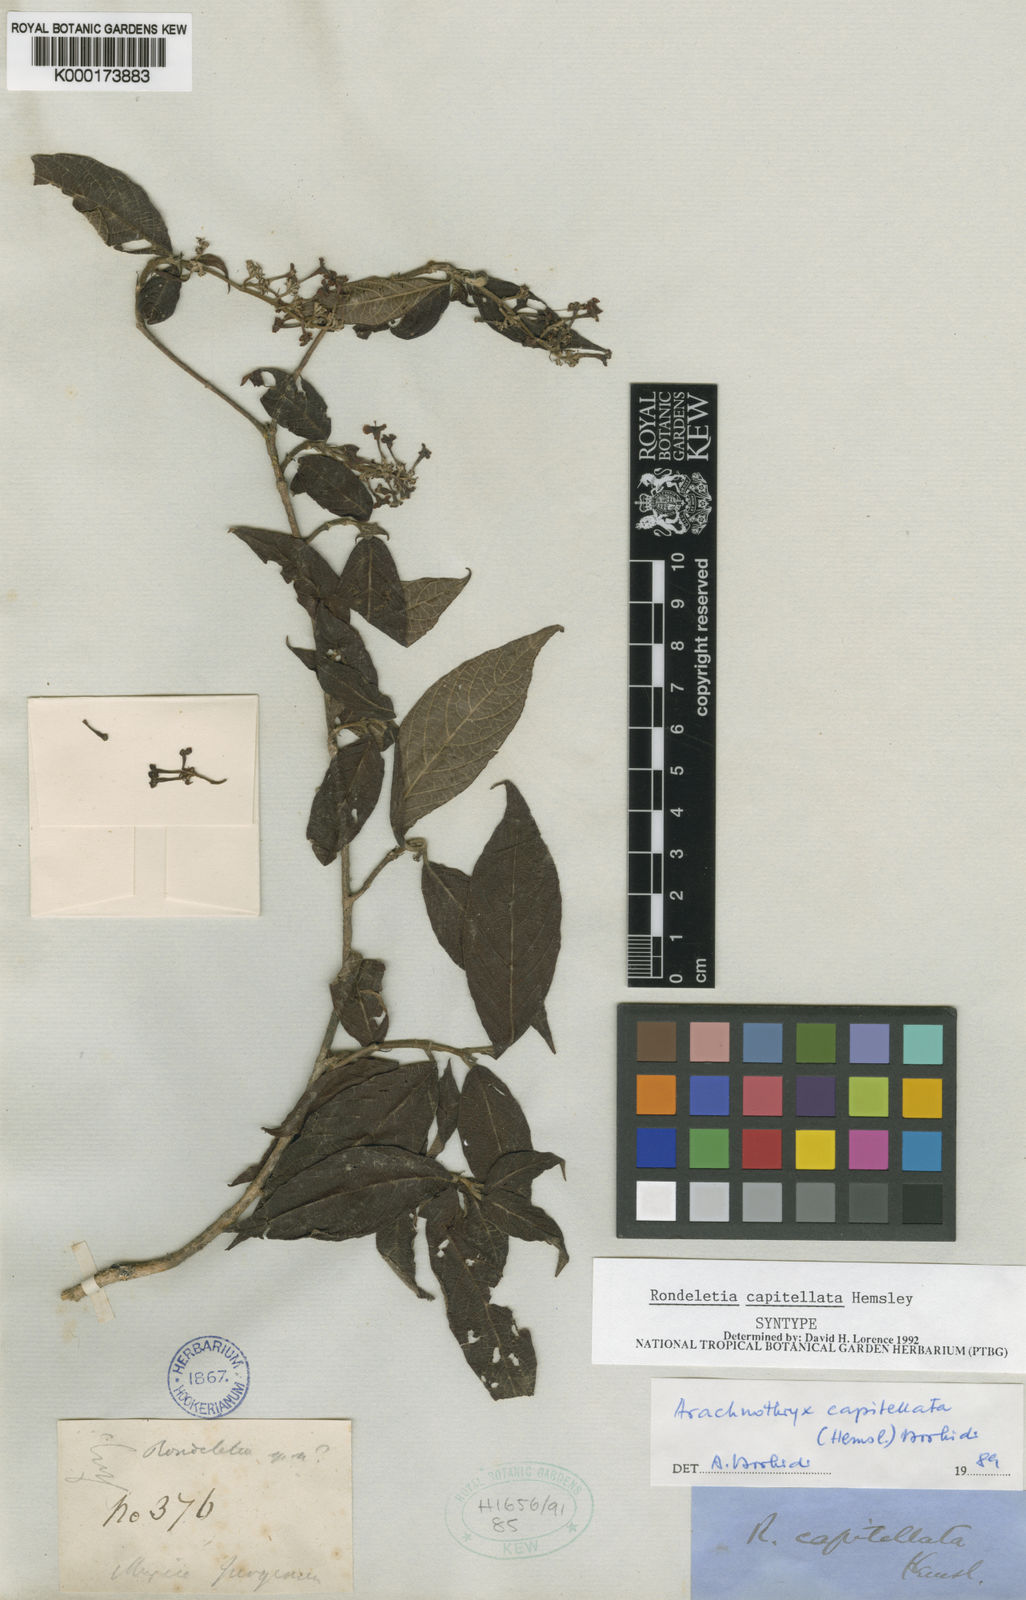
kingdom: Plantae
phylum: Tracheophyta
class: Magnoliopsida
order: Gentianales
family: Rubiaceae
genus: Arachnothryx
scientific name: Arachnothryx capitellata
